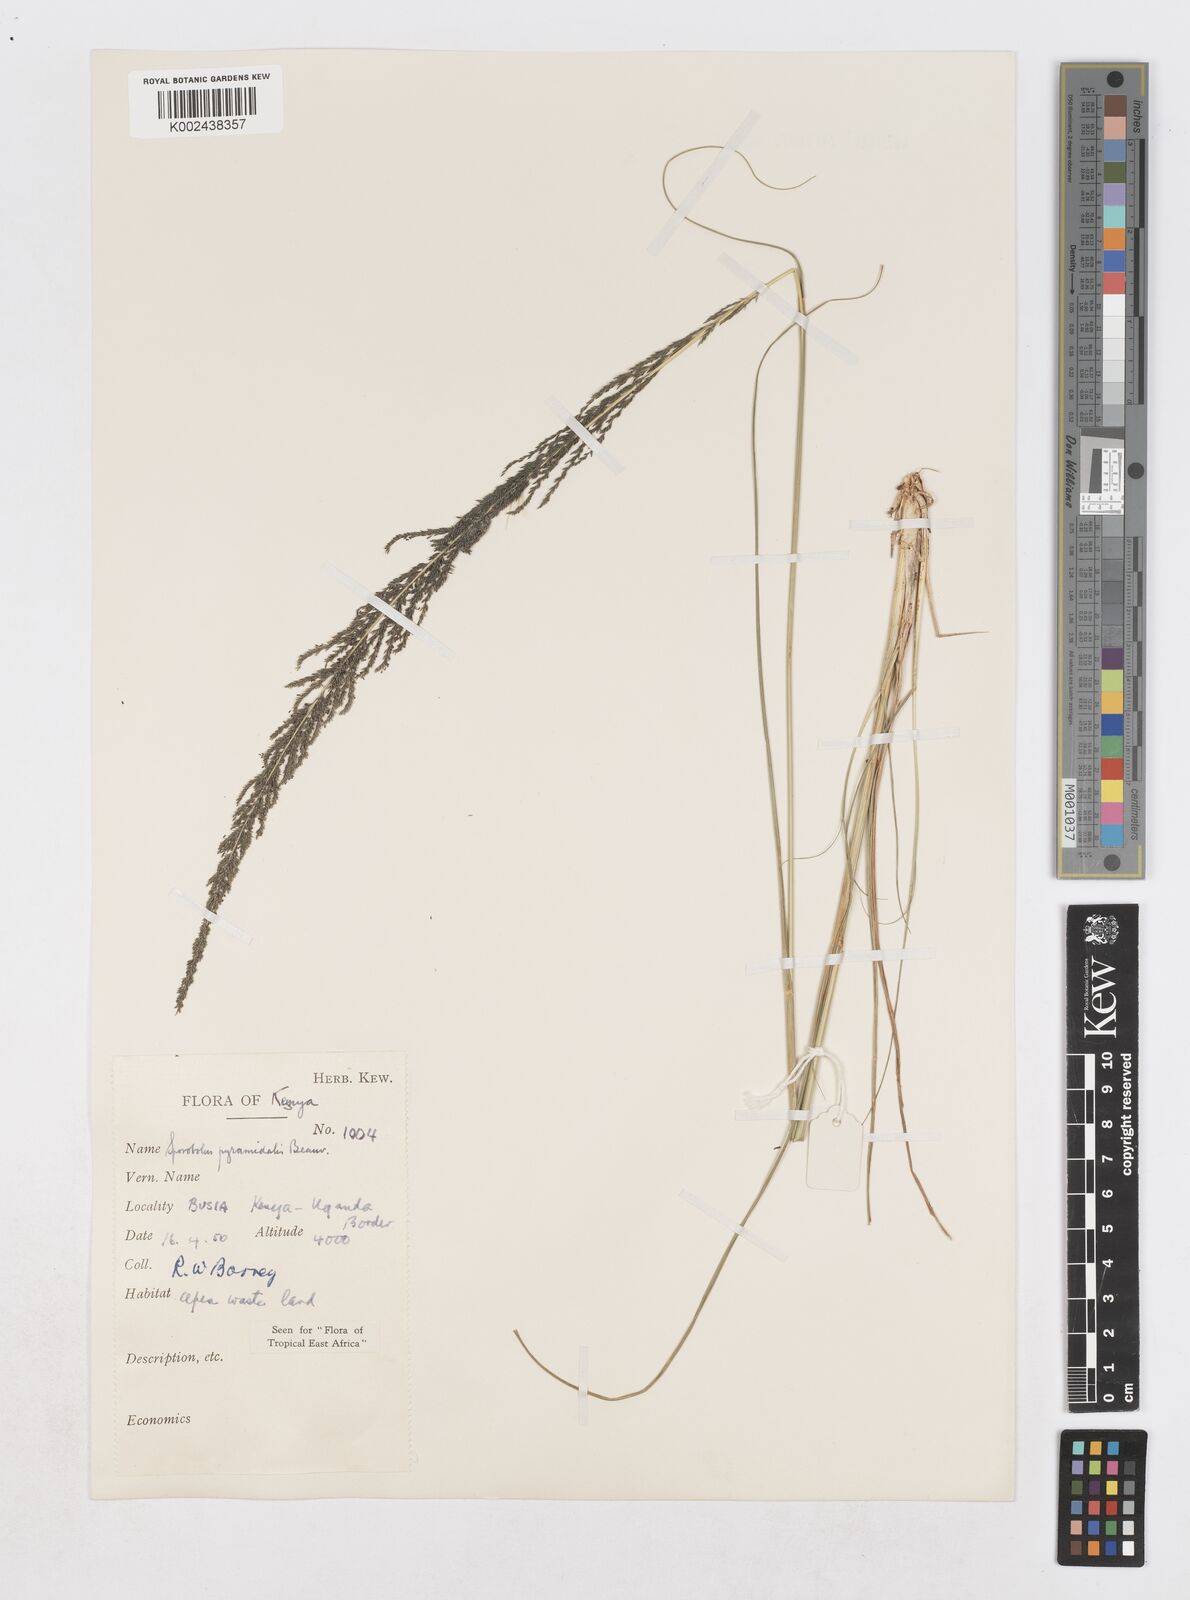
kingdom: Plantae
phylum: Tracheophyta
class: Liliopsida
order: Poales
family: Poaceae
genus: Sporobolus
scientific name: Sporobolus pyramidalis
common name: West indian dropseed
